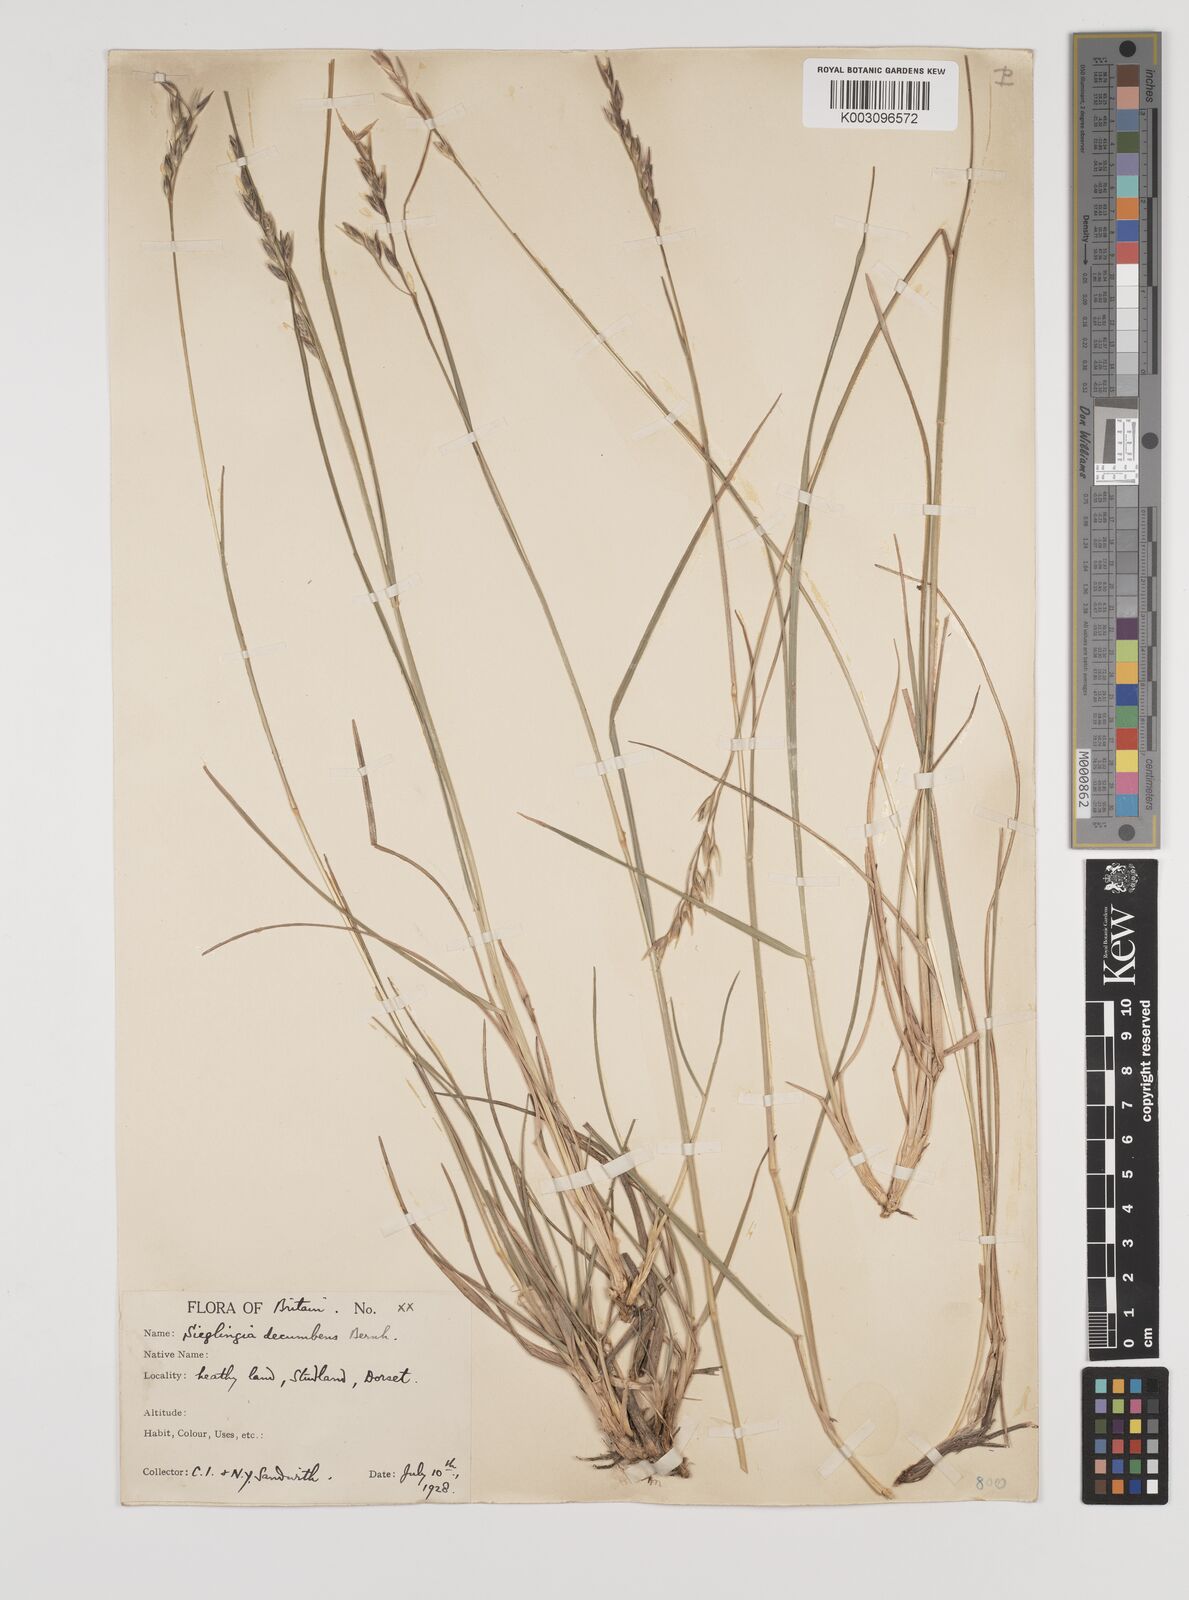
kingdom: Plantae
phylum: Tracheophyta
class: Liliopsida
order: Poales
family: Poaceae
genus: Danthonia
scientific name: Danthonia decumbens
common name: Common heathgrass
